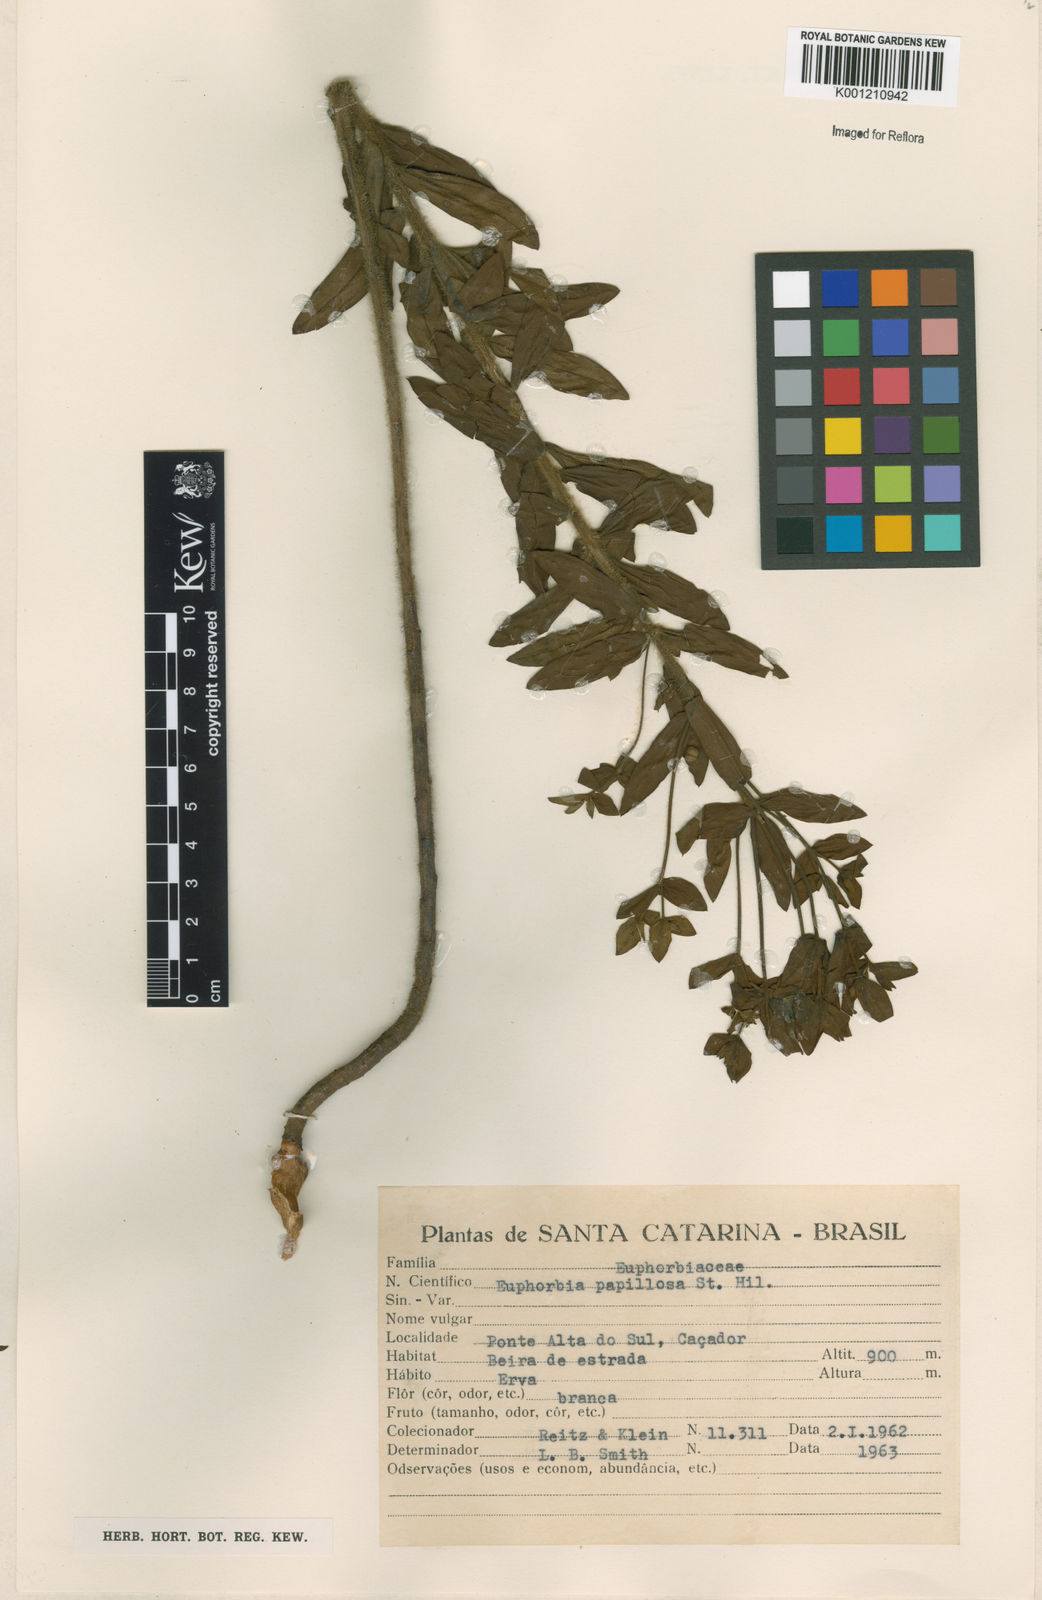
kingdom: Plantae
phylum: Tracheophyta
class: Magnoliopsida
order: Malpighiales
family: Euphorbiaceae
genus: Euphorbia
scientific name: Euphorbia papillosa
